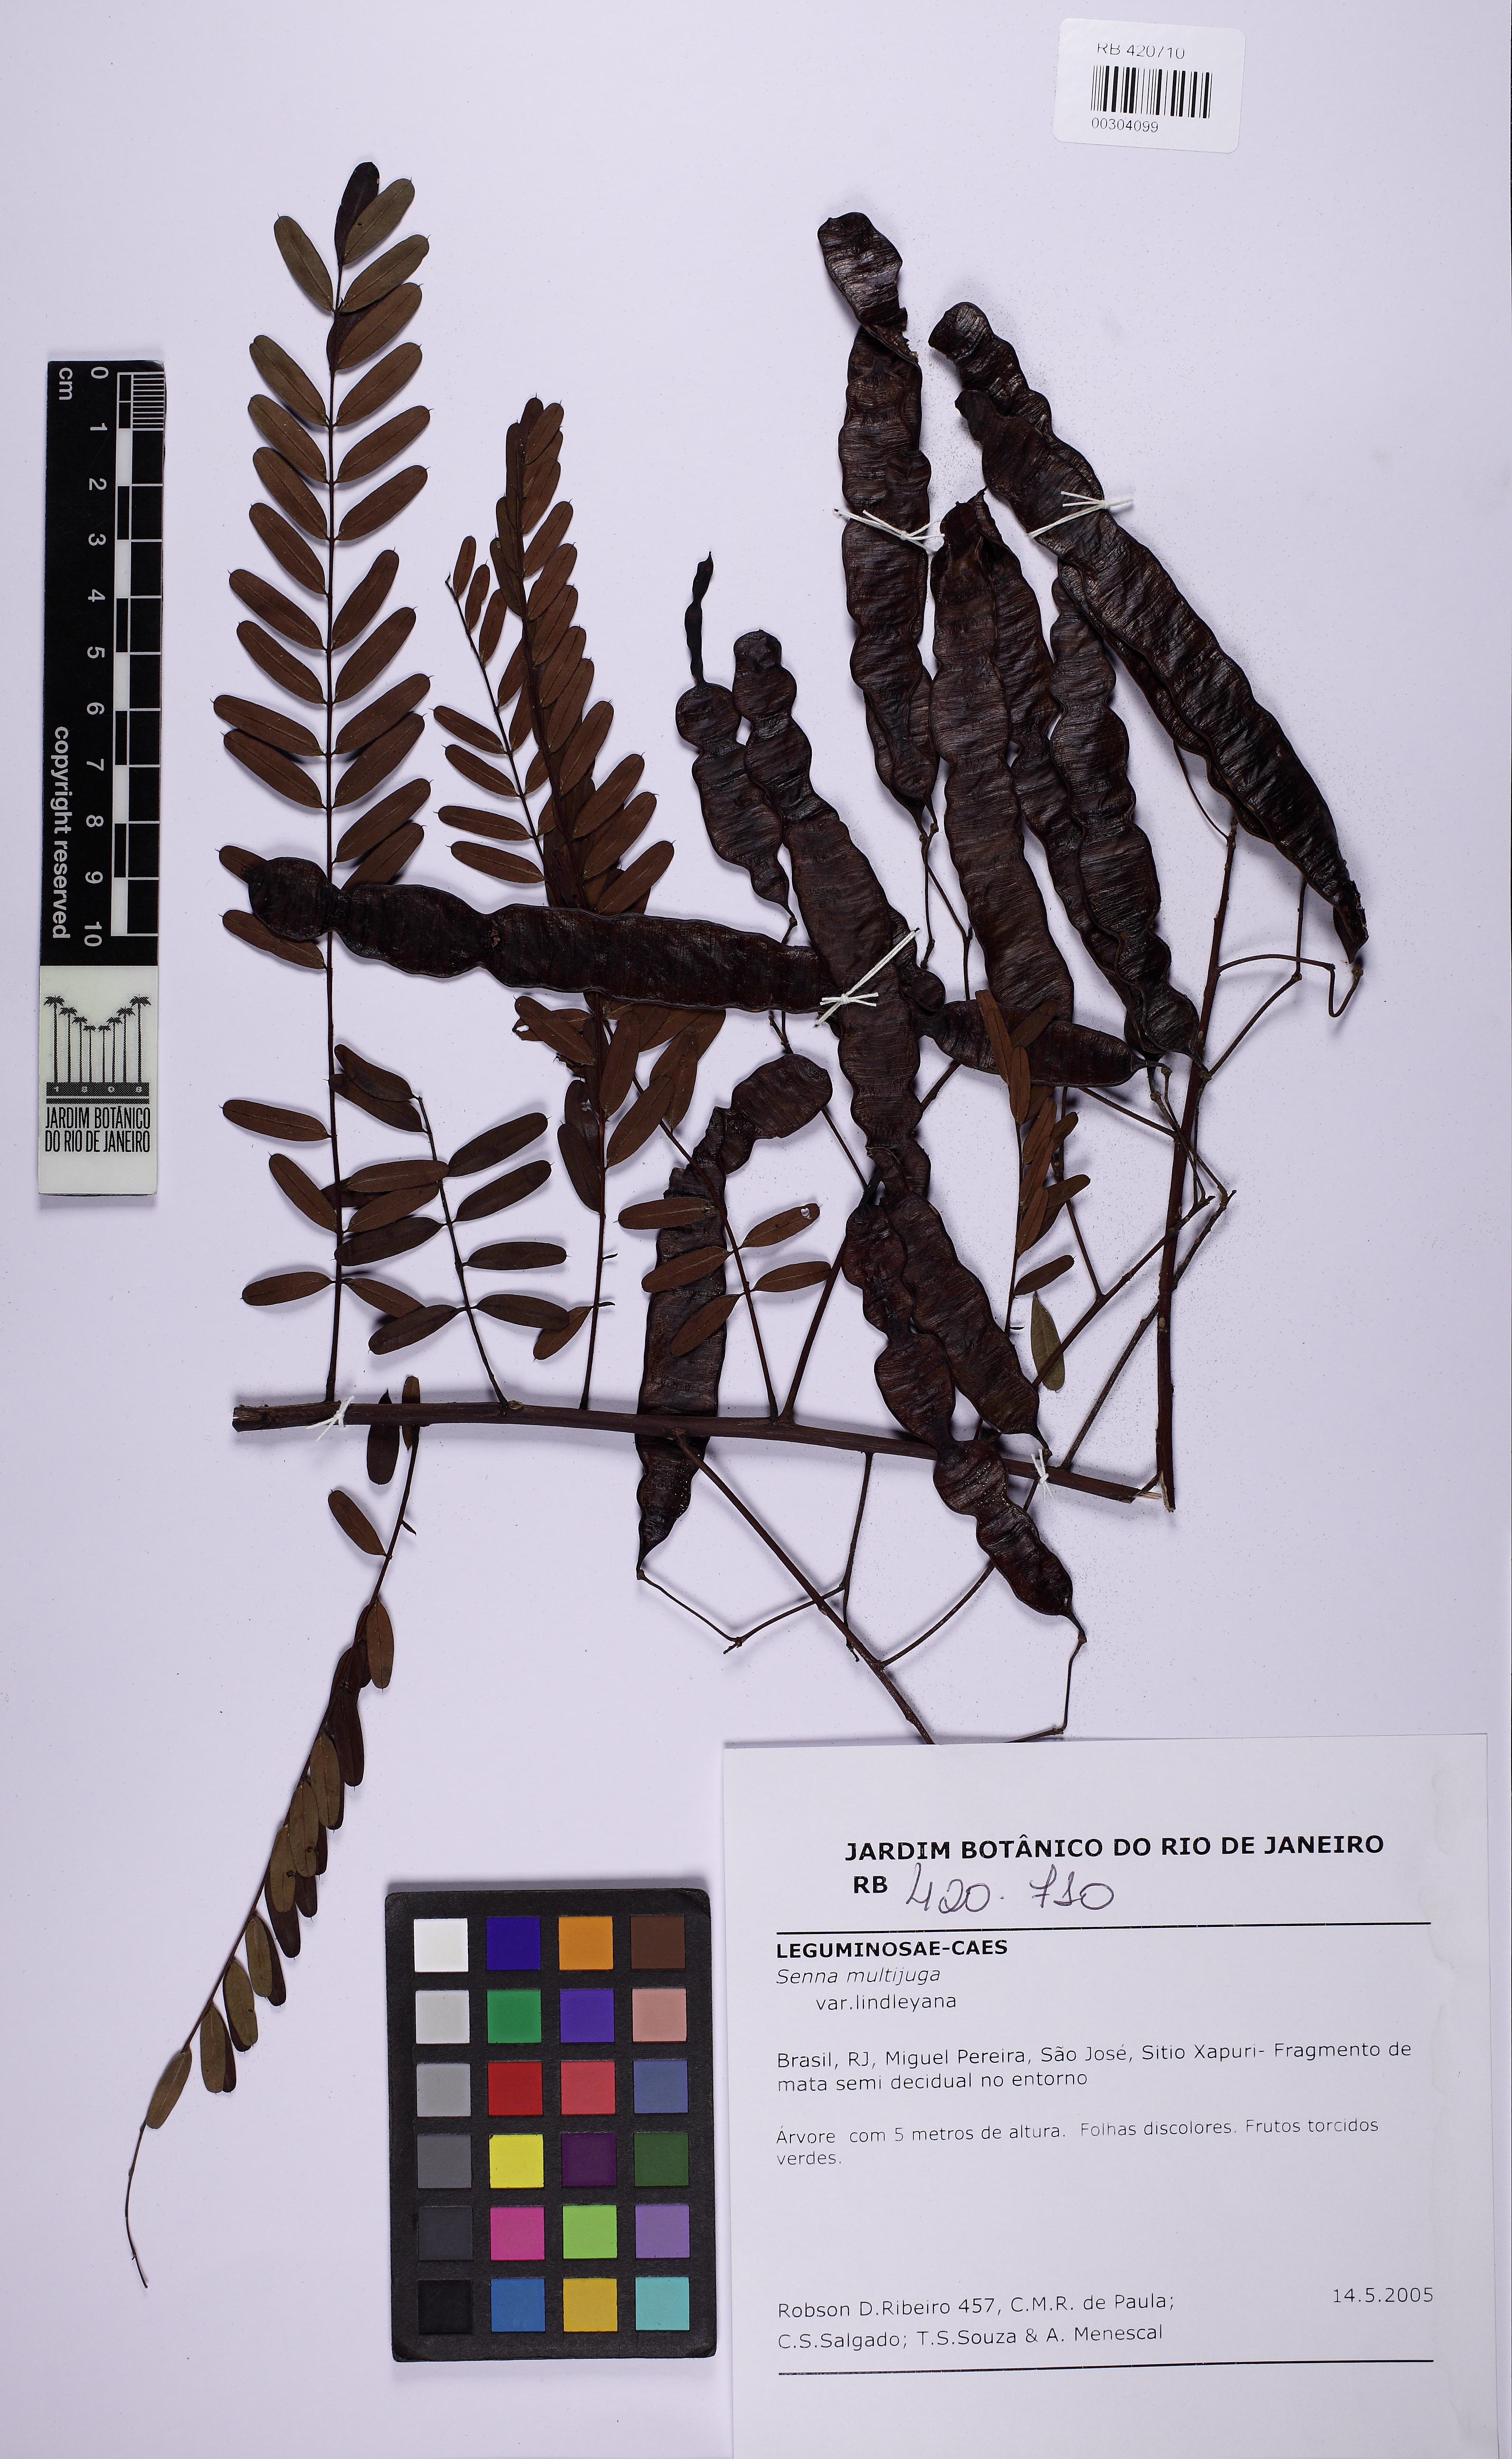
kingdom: Plantae
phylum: Tracheophyta
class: Magnoliopsida
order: Fabales
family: Fabaceae
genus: Senna
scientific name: Senna multijuga
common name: False sicklepod
